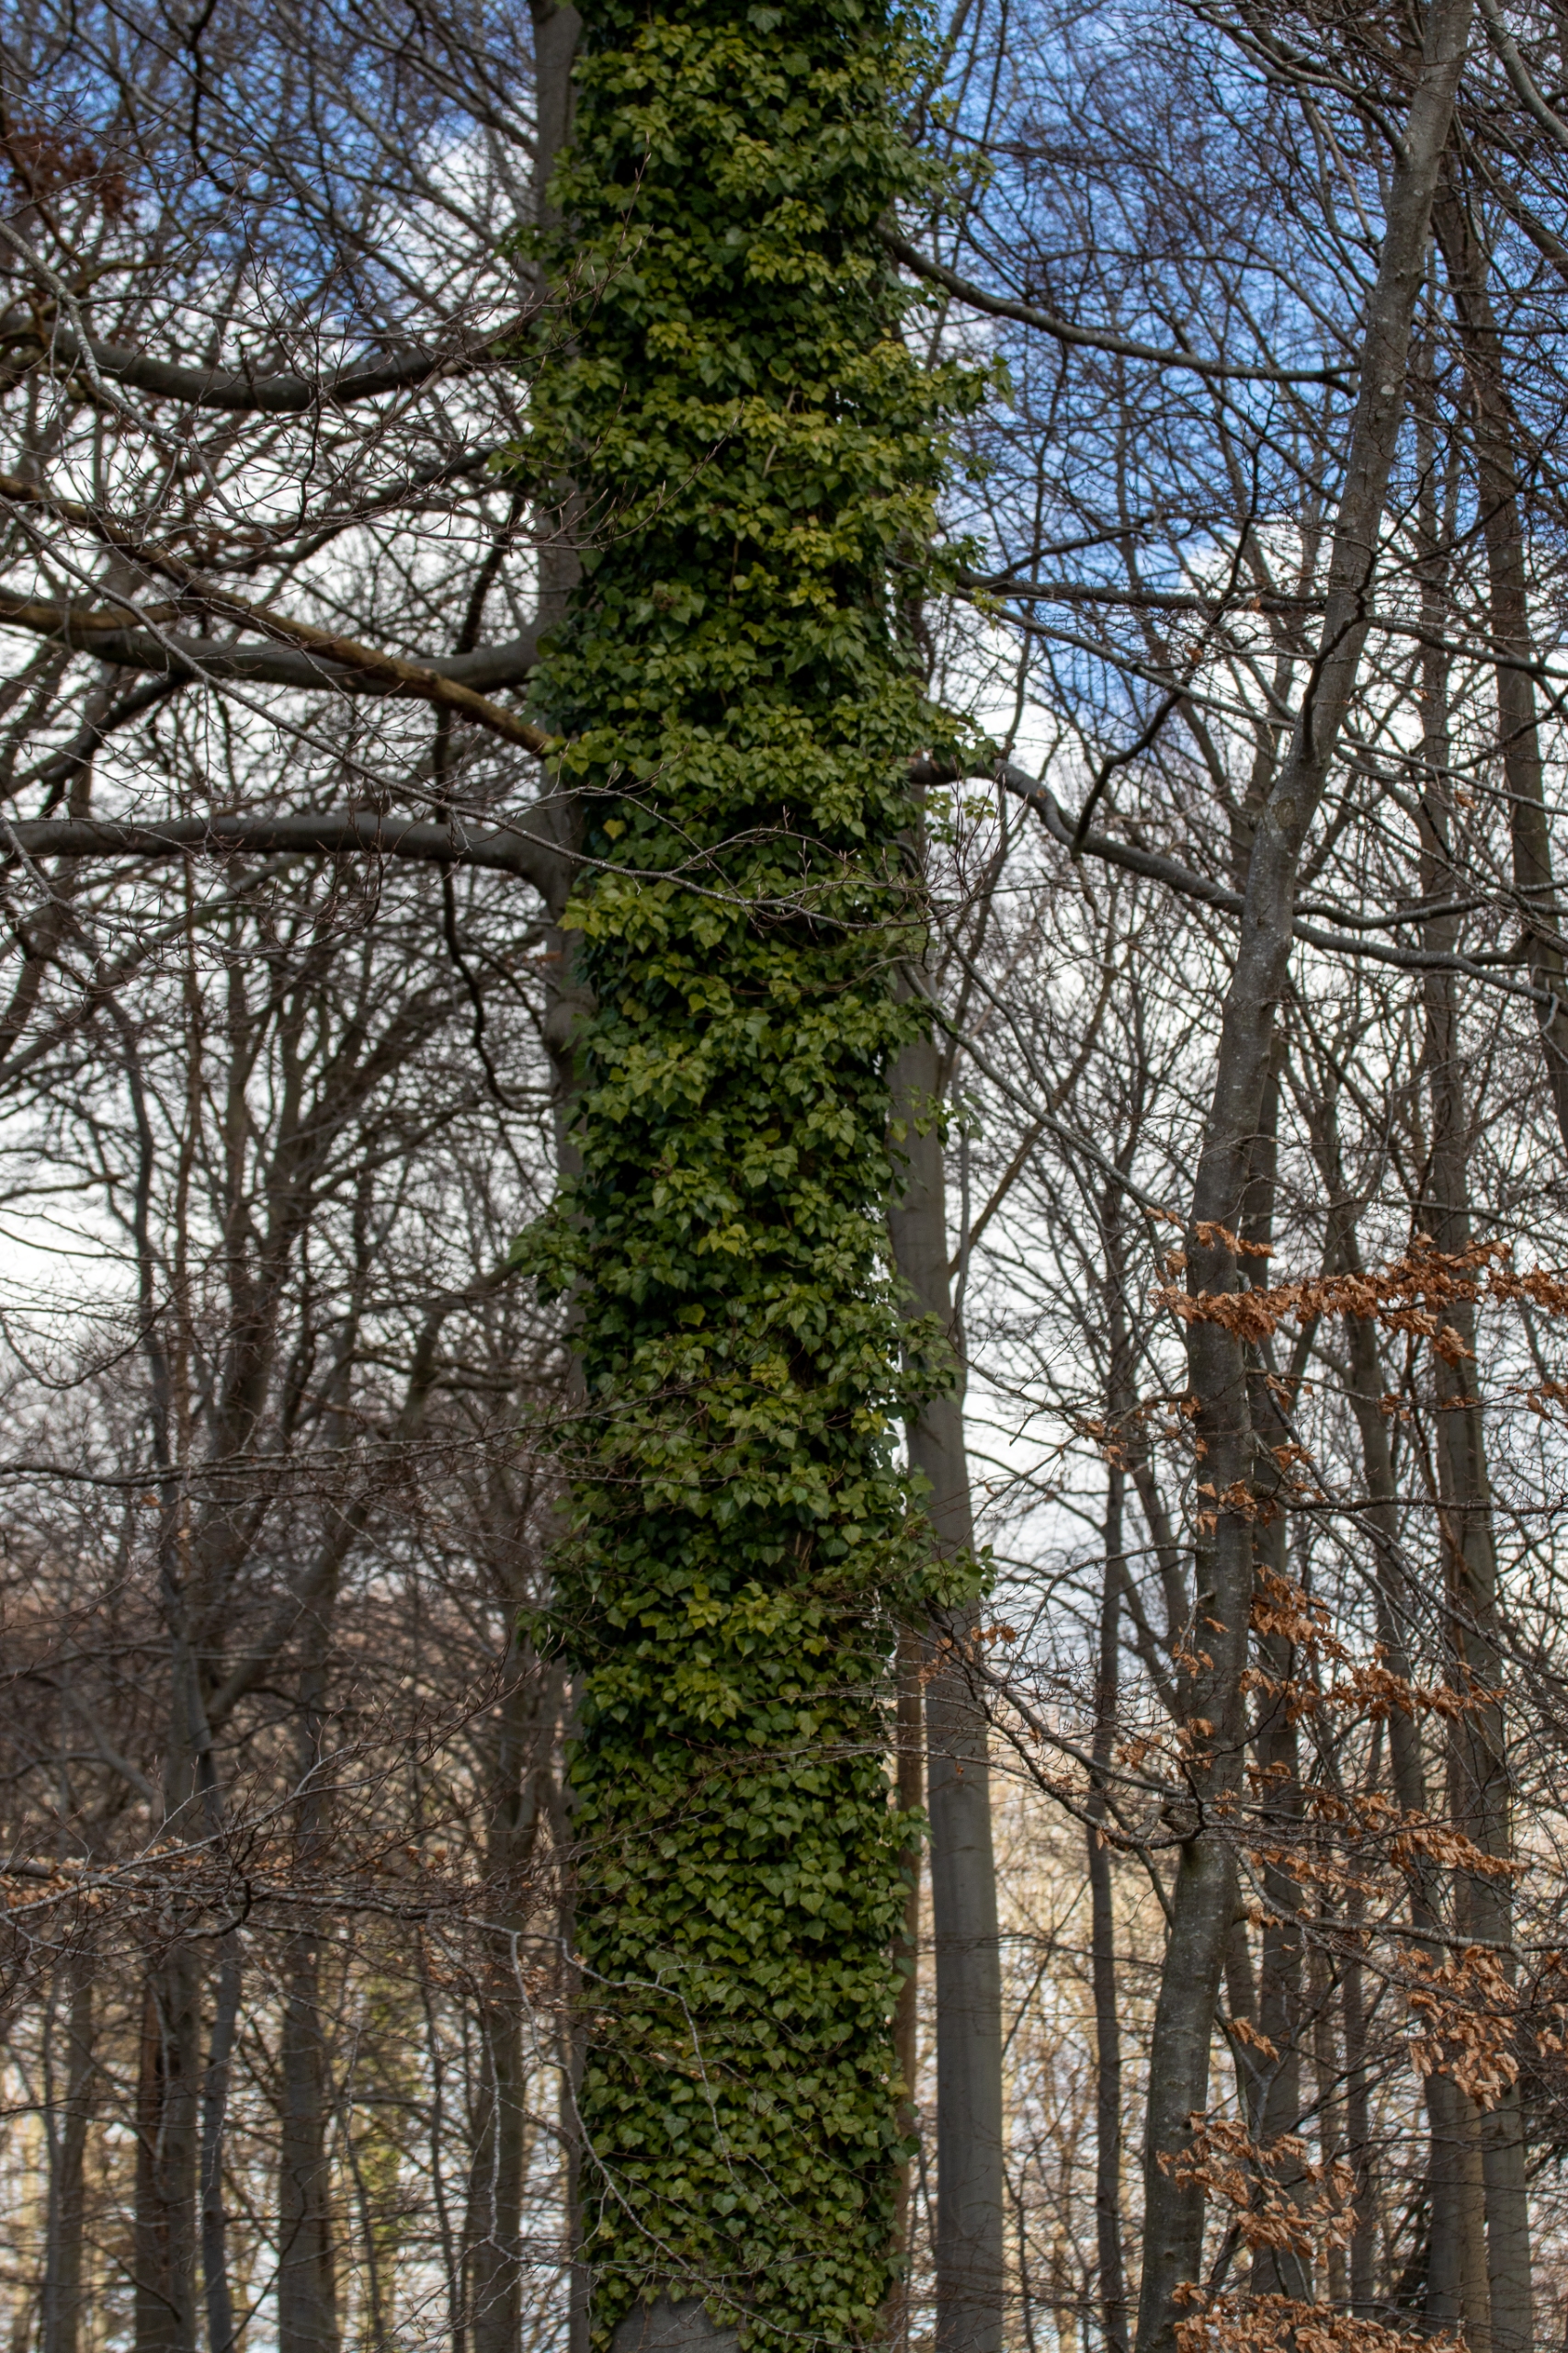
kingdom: Plantae
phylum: Tracheophyta
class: Magnoliopsida
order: Apiales
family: Araliaceae
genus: Hedera
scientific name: Hedera helix
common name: Vedbend
